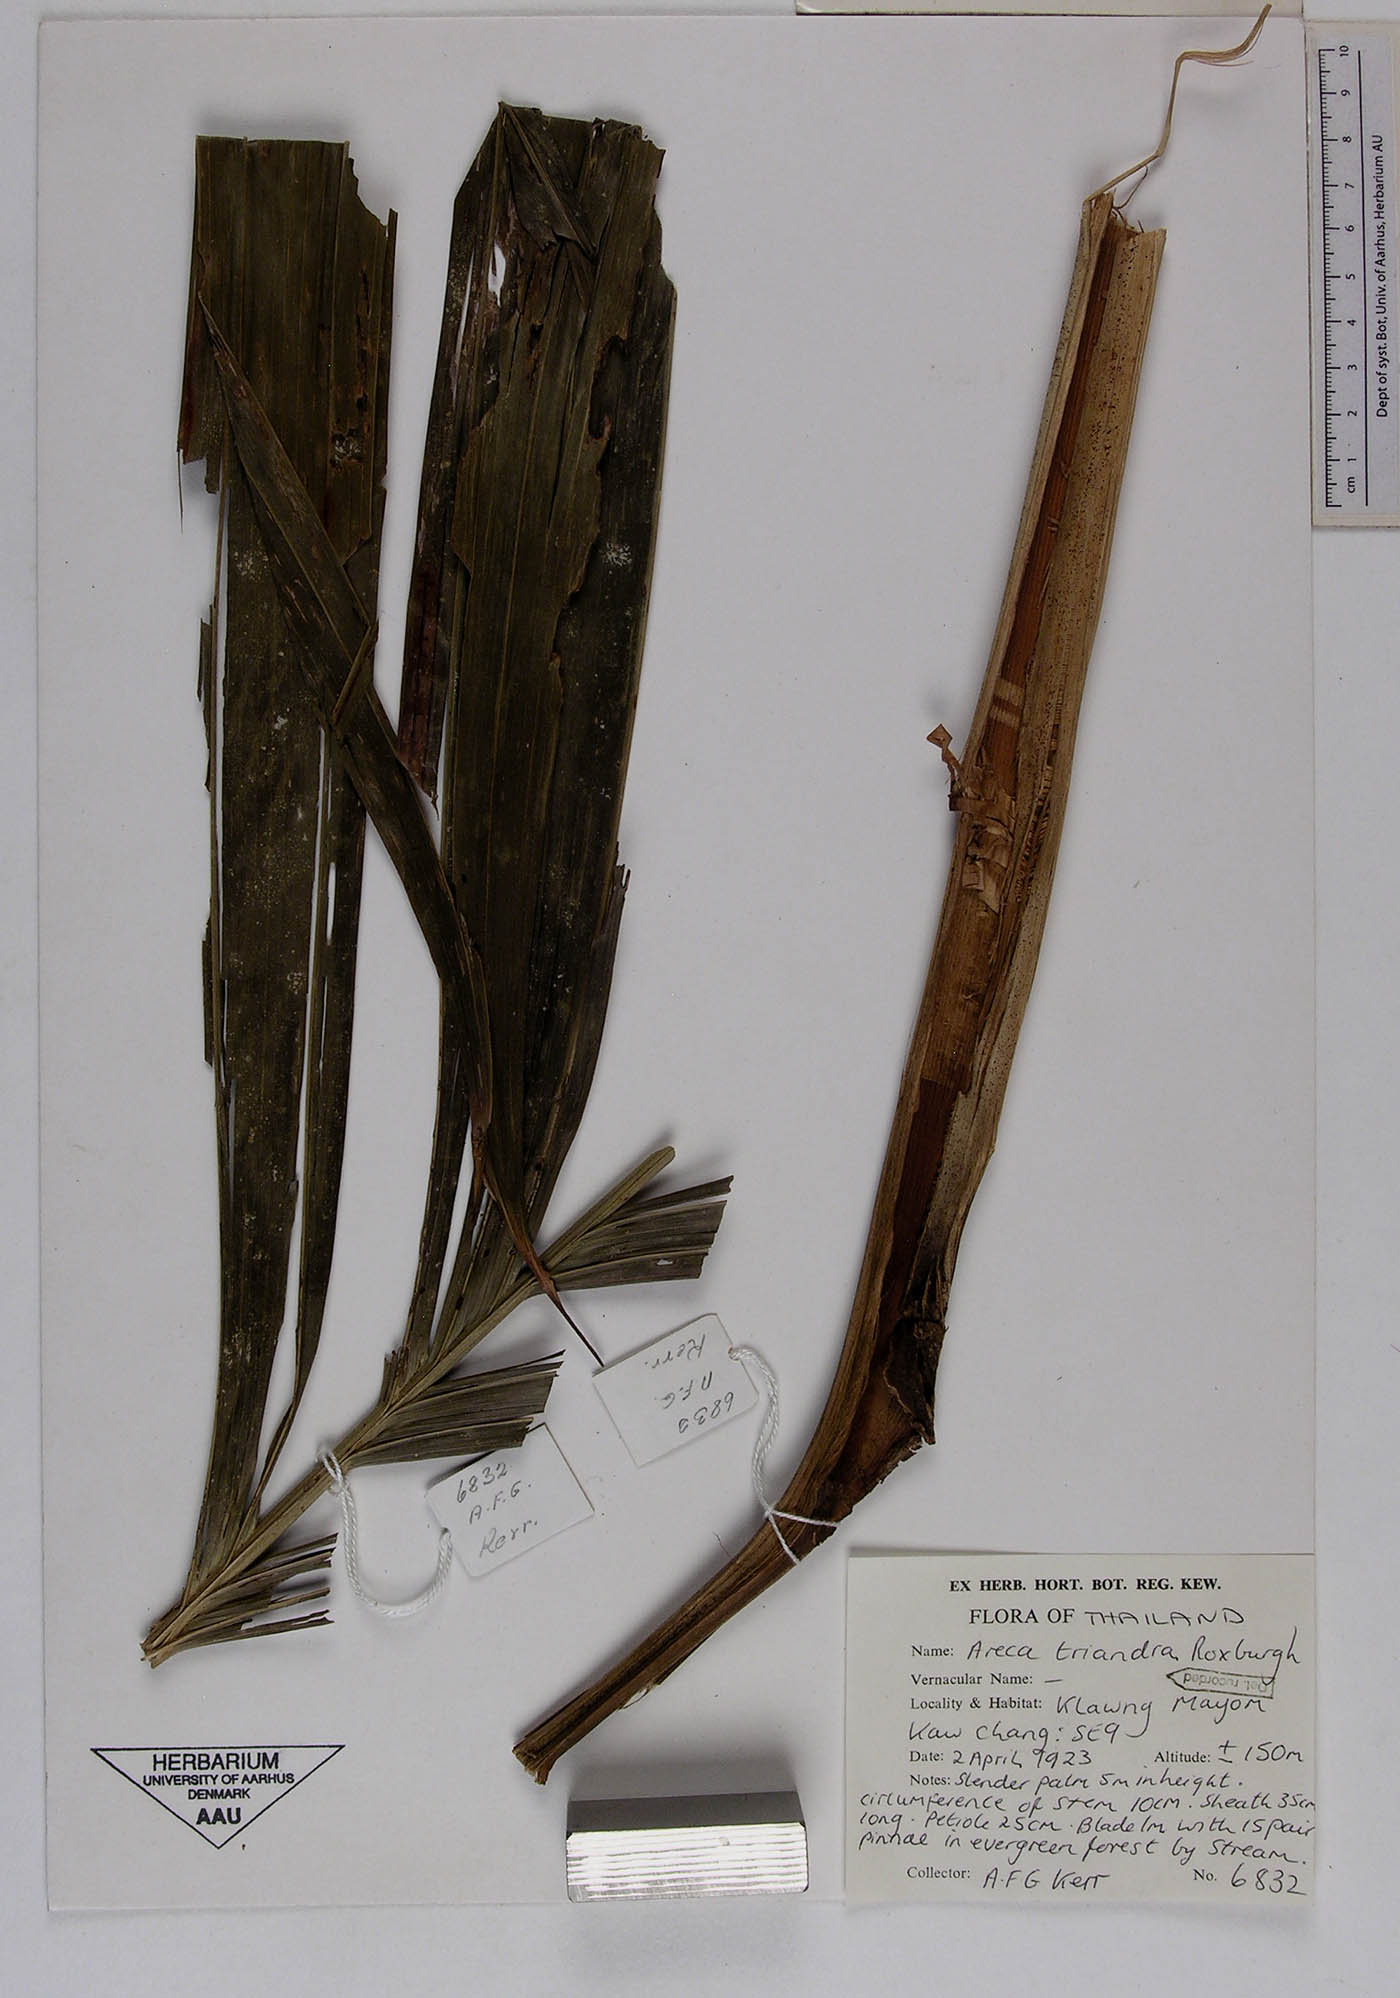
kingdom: Plantae
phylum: Tracheophyta
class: Liliopsida
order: Arecales
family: Arecaceae
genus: Areca
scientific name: Areca triandra
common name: Australian areca palm
